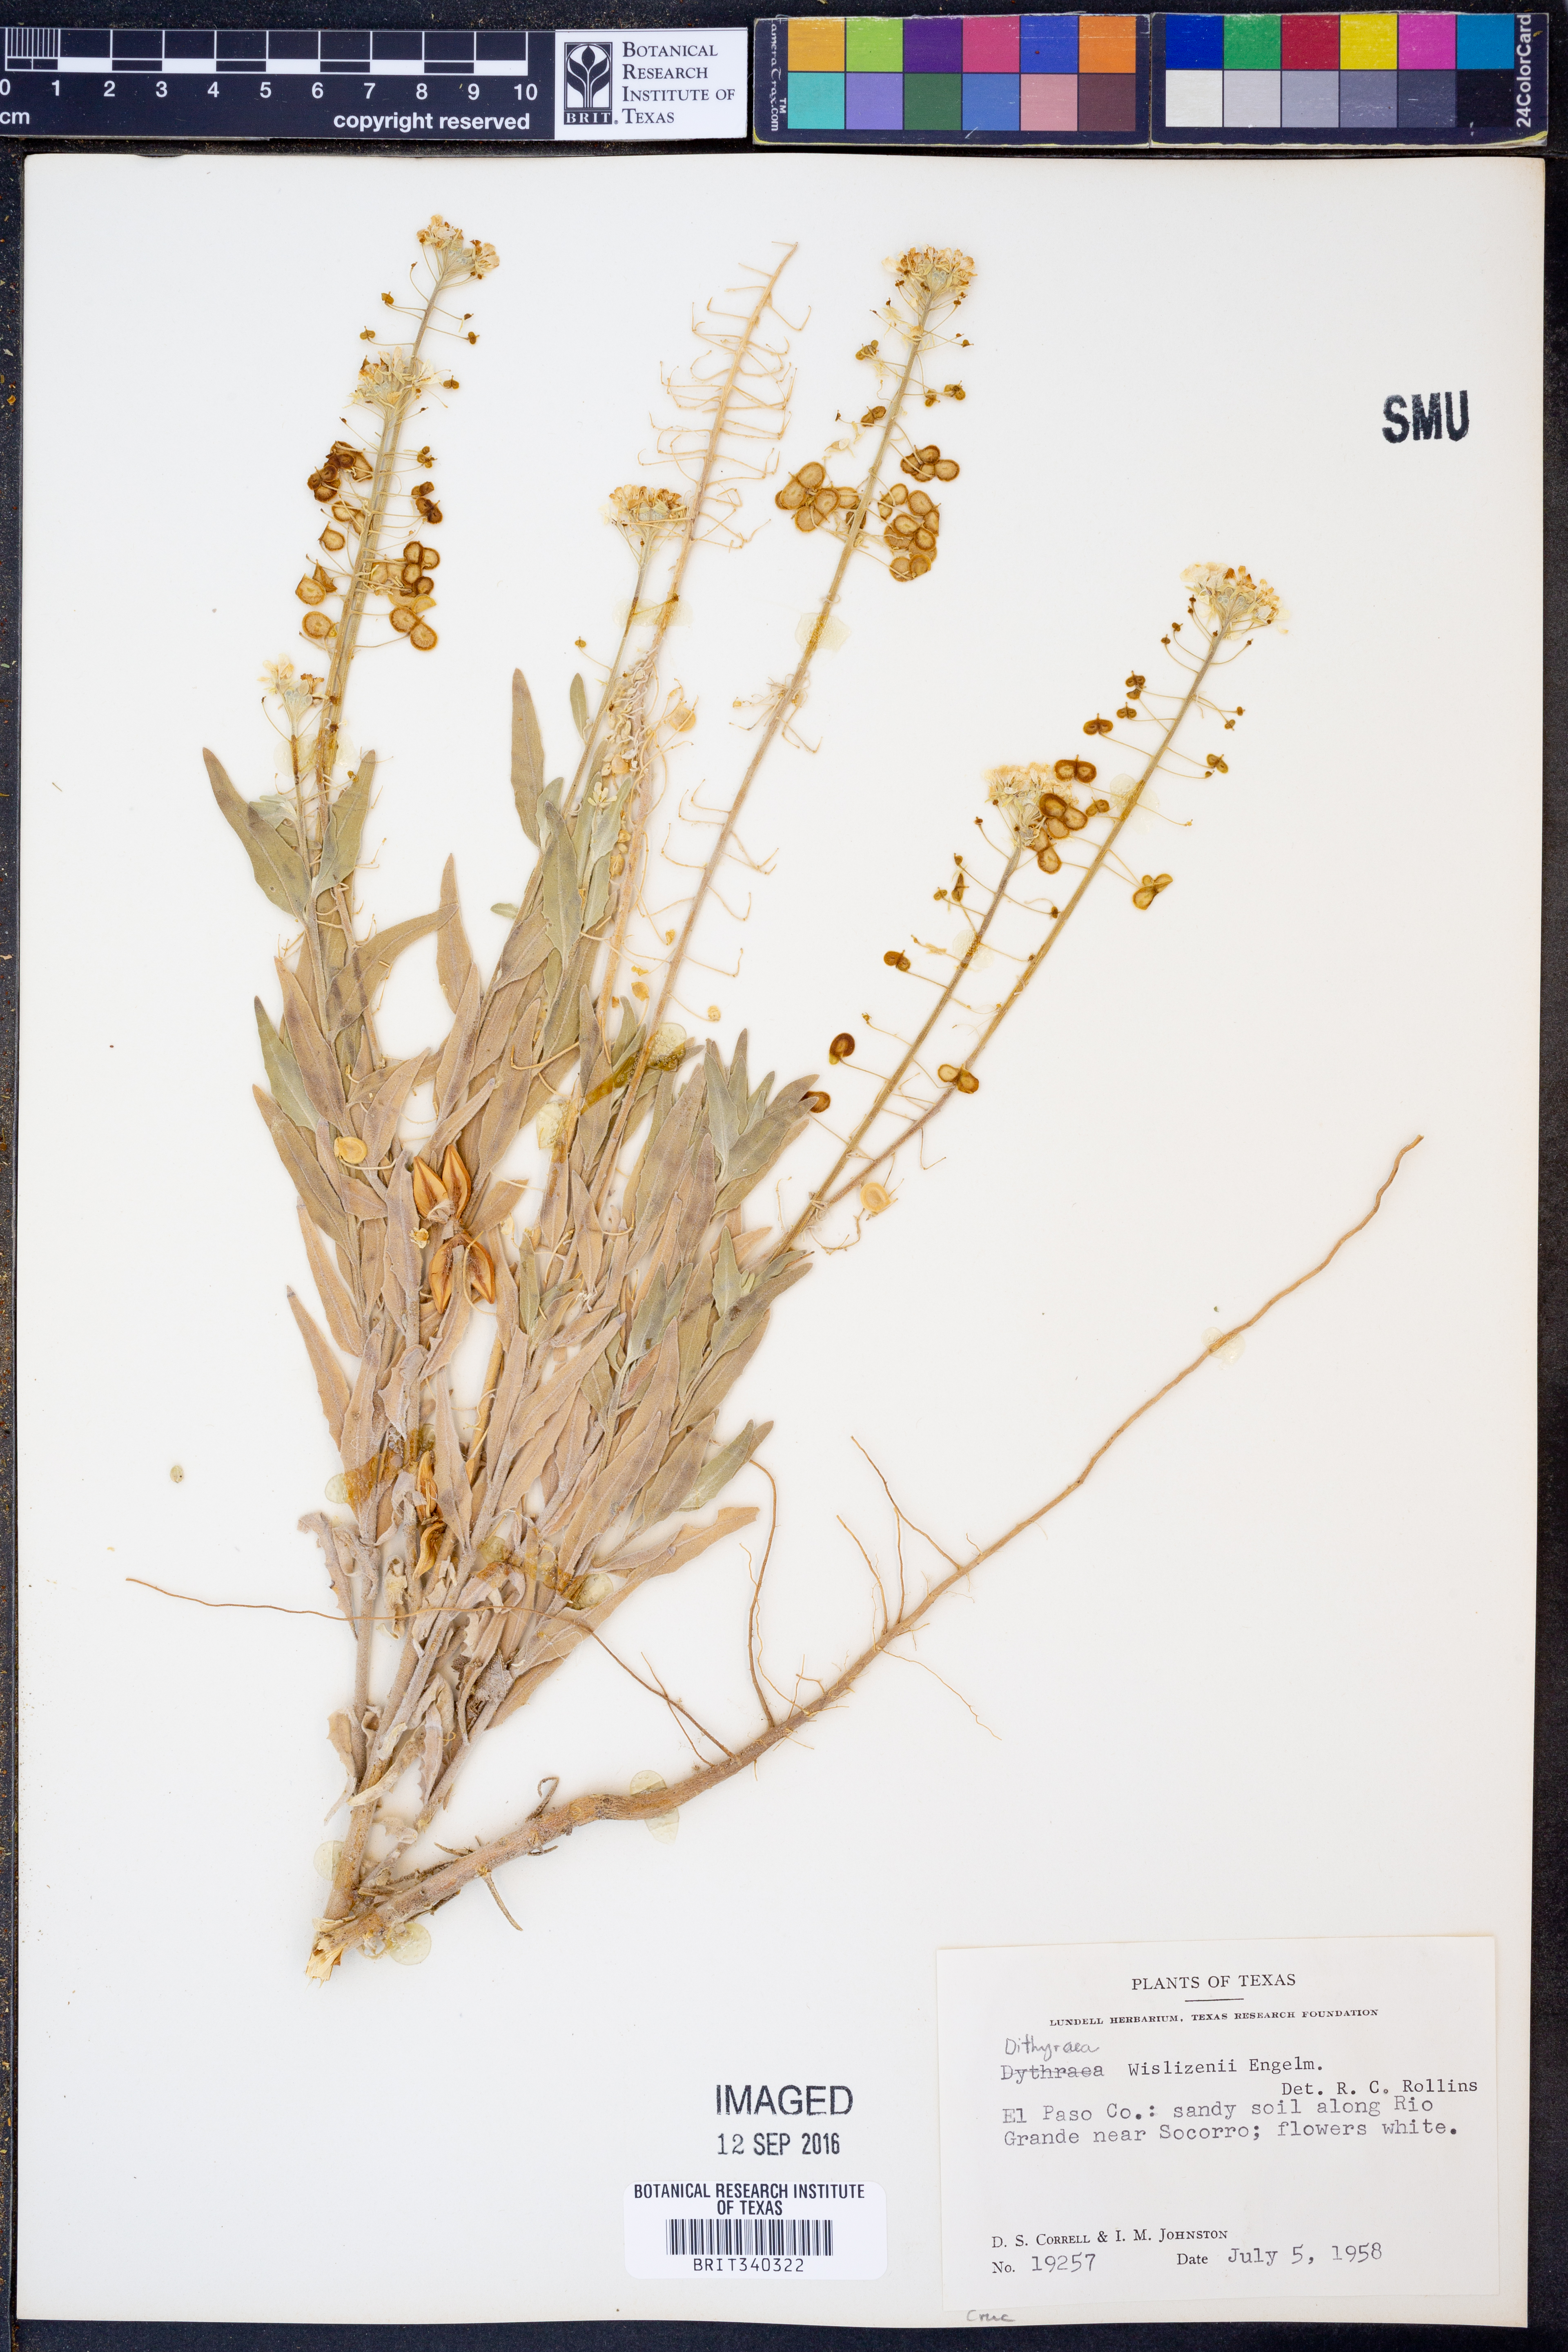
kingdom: Plantae
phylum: Tracheophyta
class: Magnoliopsida
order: Brassicales
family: Brassicaceae
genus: Dimorphocarpa
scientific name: Dimorphocarpa wislizenii
